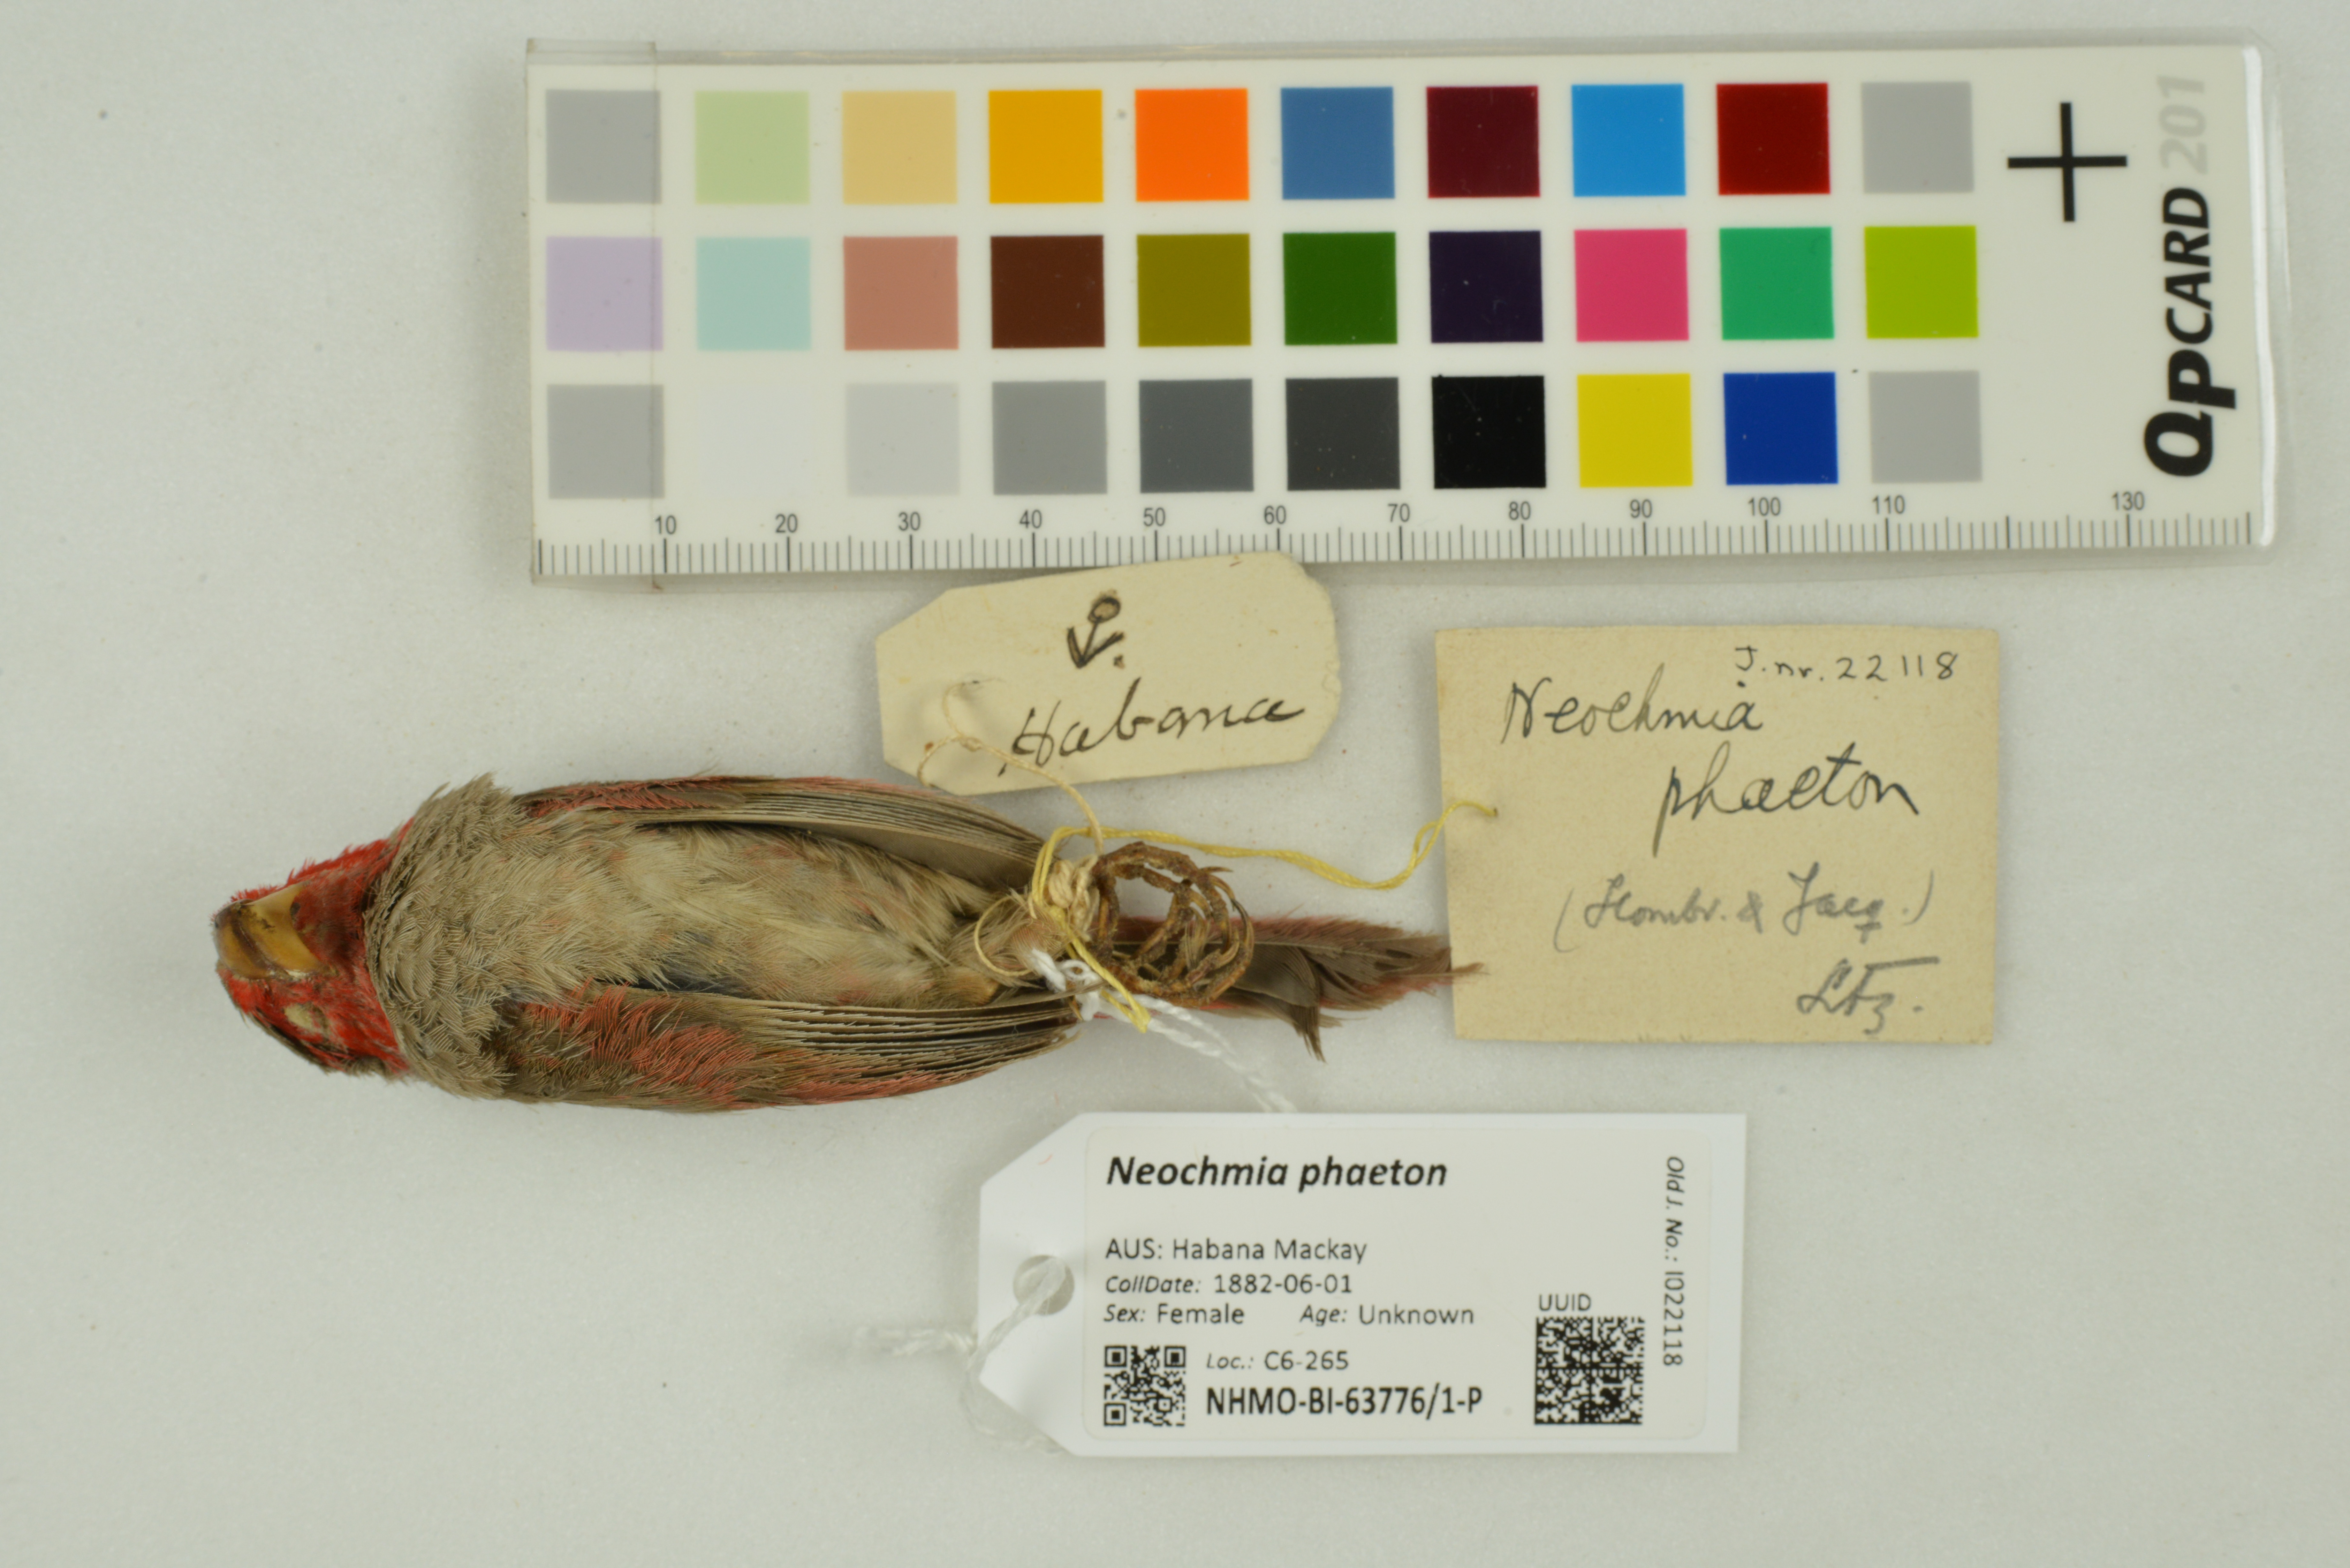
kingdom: Animalia
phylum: Chordata
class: Aves
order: Passeriformes
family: Estrildidae
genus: Neochmia
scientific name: Neochmia phaeton
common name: Crimson finch
